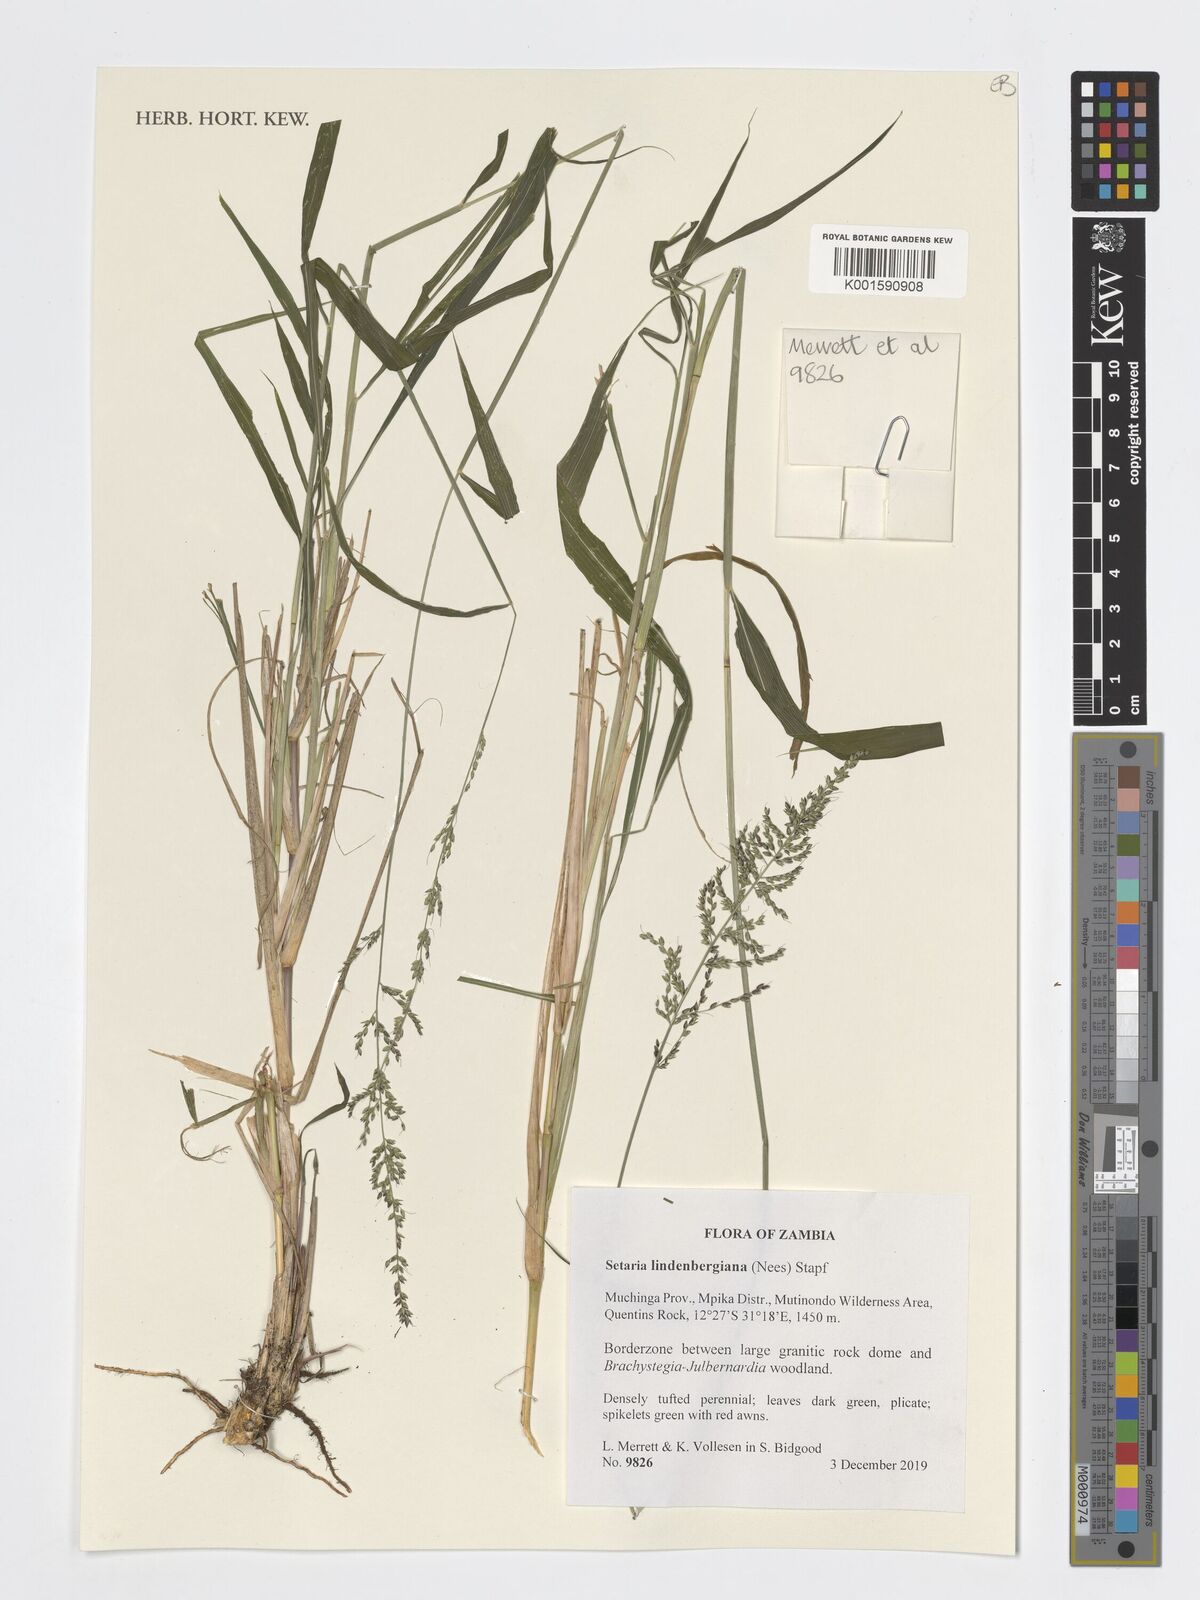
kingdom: Plantae
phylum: Tracheophyta
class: Liliopsida
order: Poales
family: Poaceae
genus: Setaria
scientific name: Setaria lindenbergiana
